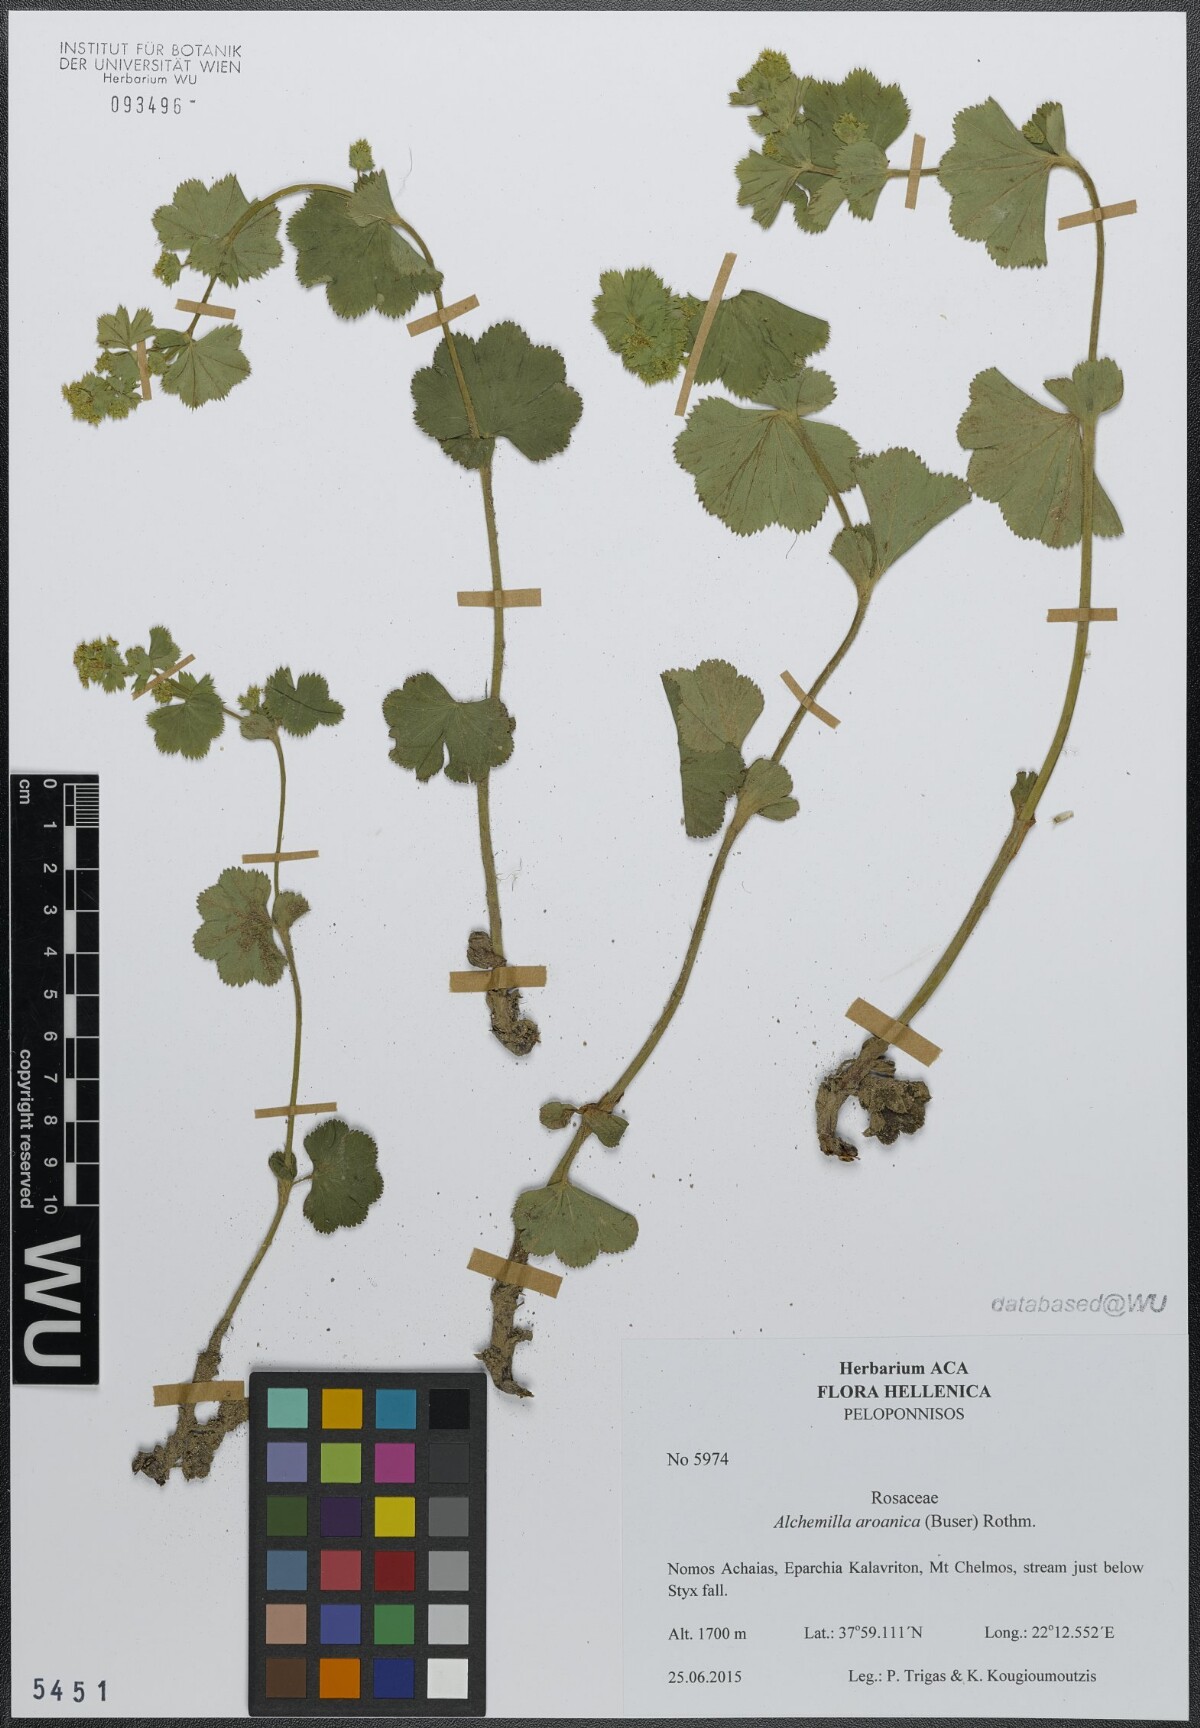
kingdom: Plantae
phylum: Tracheophyta
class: Magnoliopsida
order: Rosales
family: Rosaceae
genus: Alchemilla
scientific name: Alchemilla aroanica
